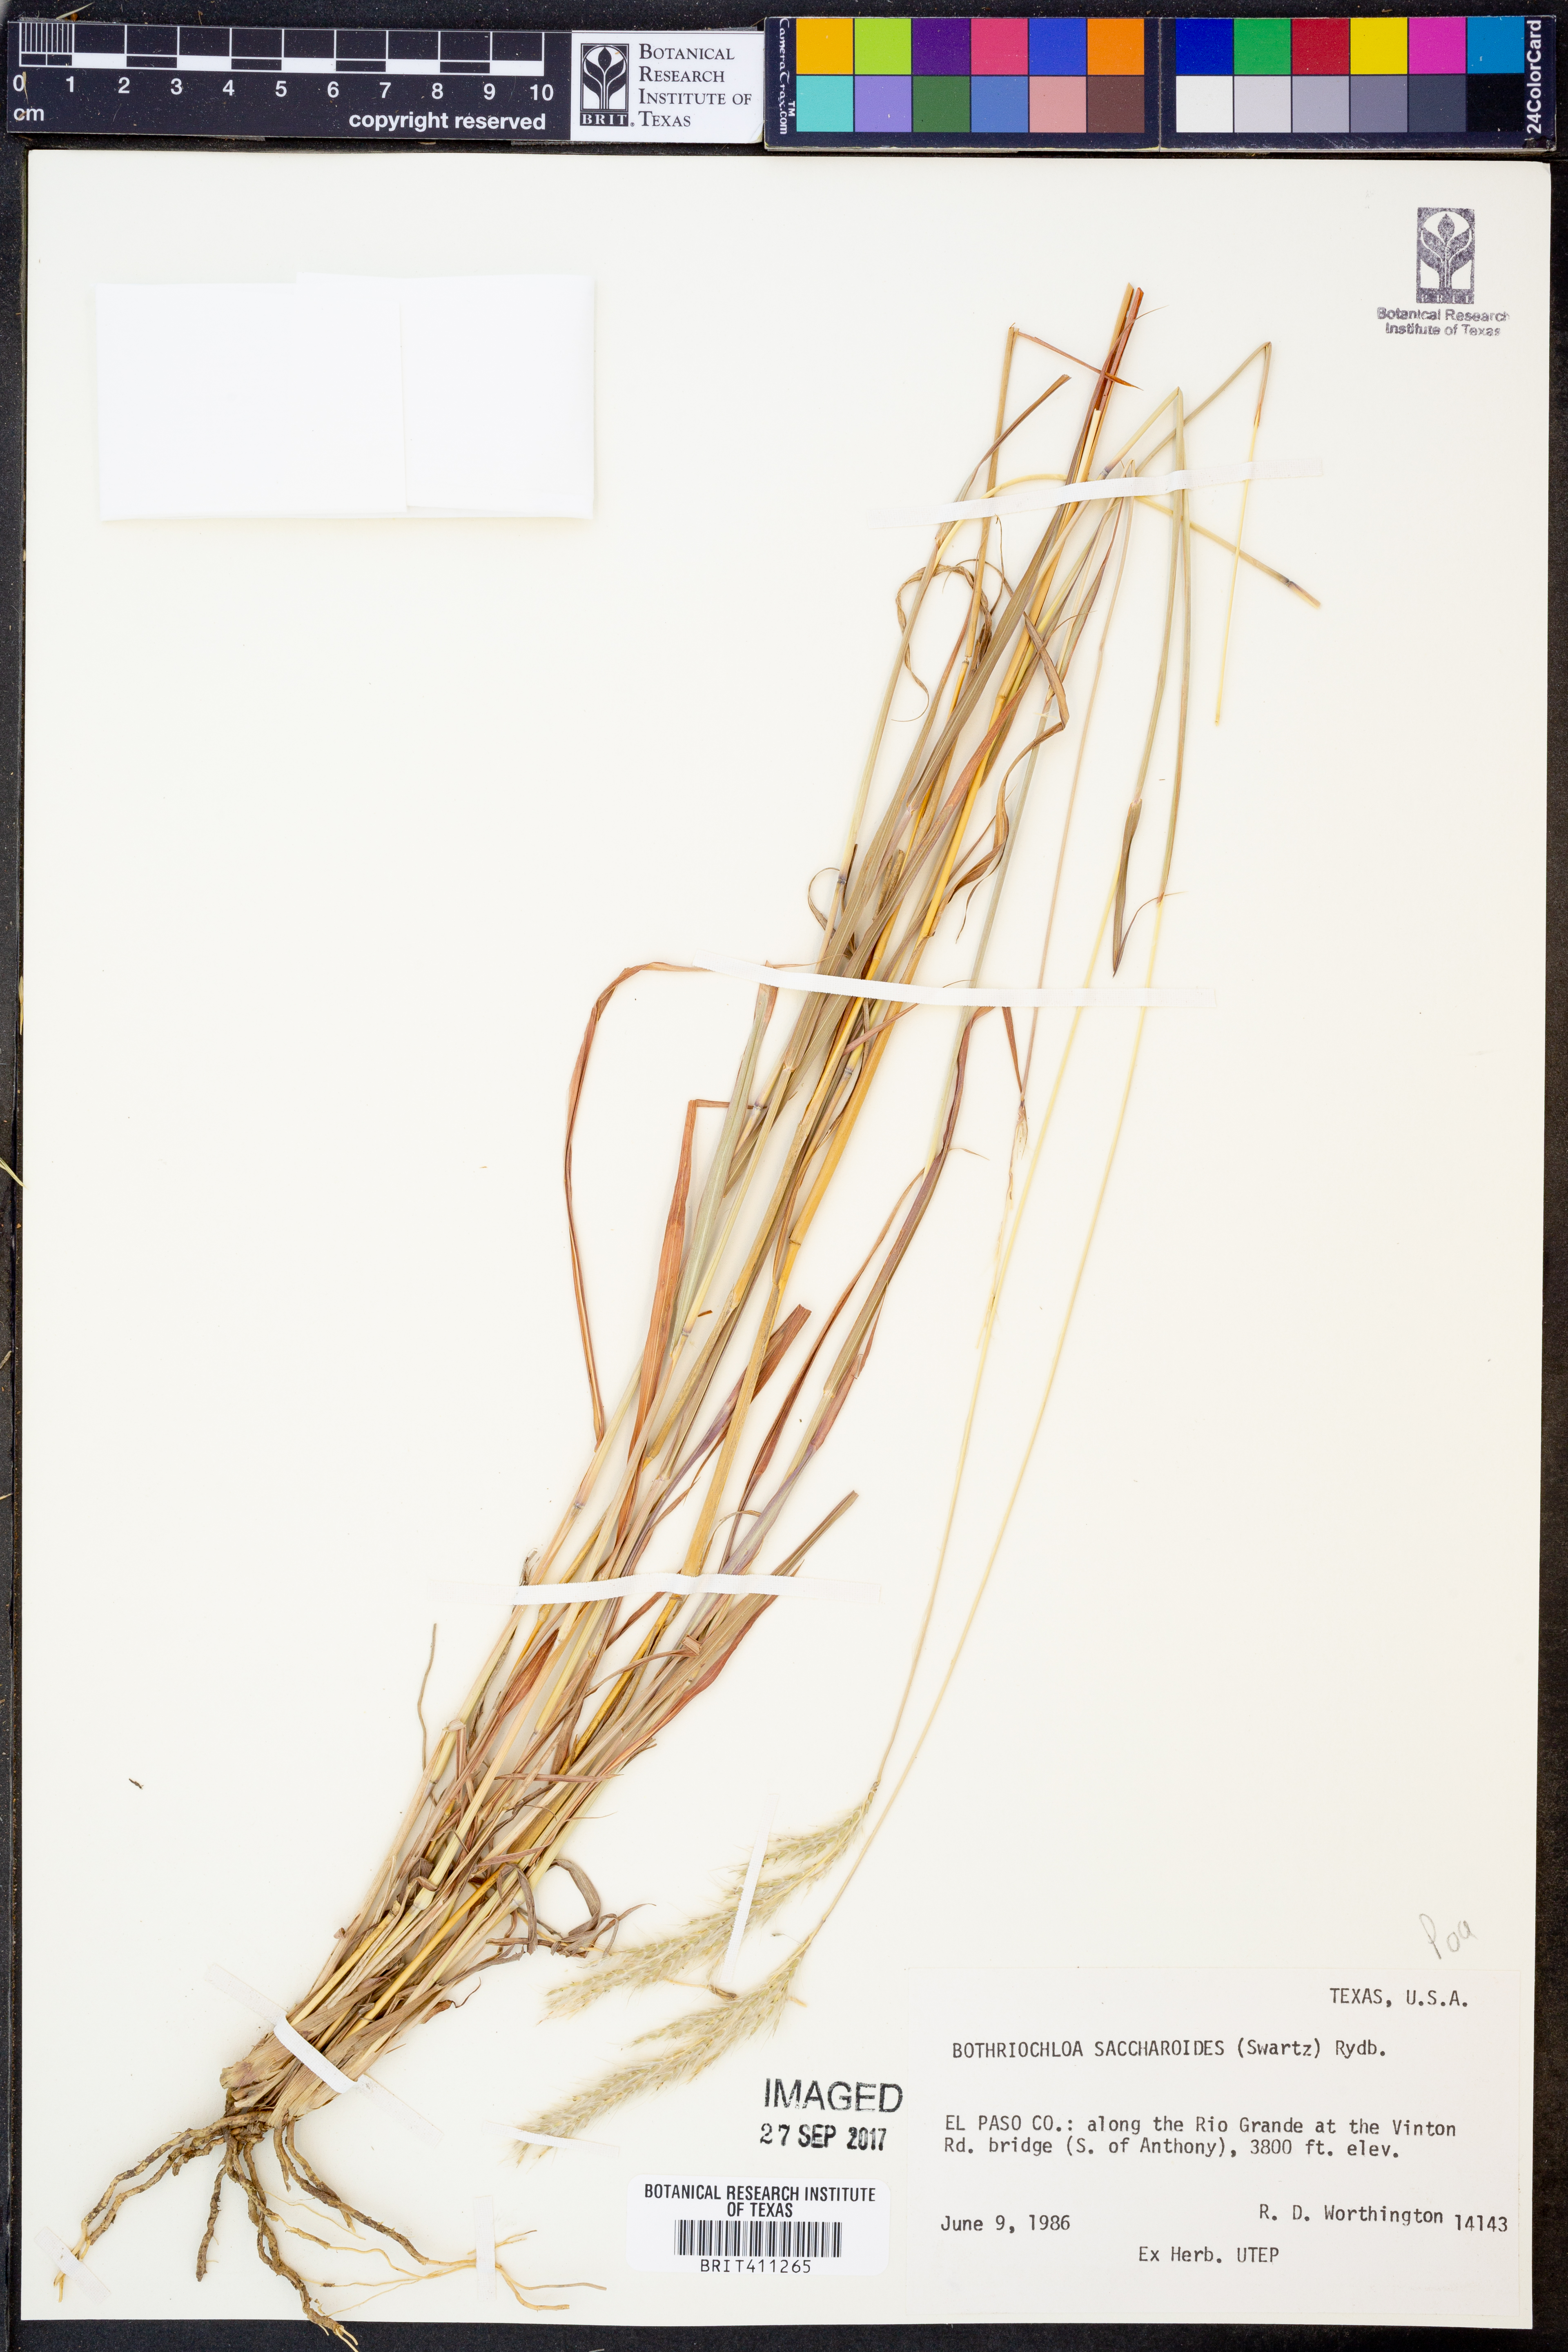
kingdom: Plantae
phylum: Tracheophyta
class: Liliopsida
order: Poales
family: Poaceae
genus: Bothriochloa
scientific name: Bothriochloa saccharoides
